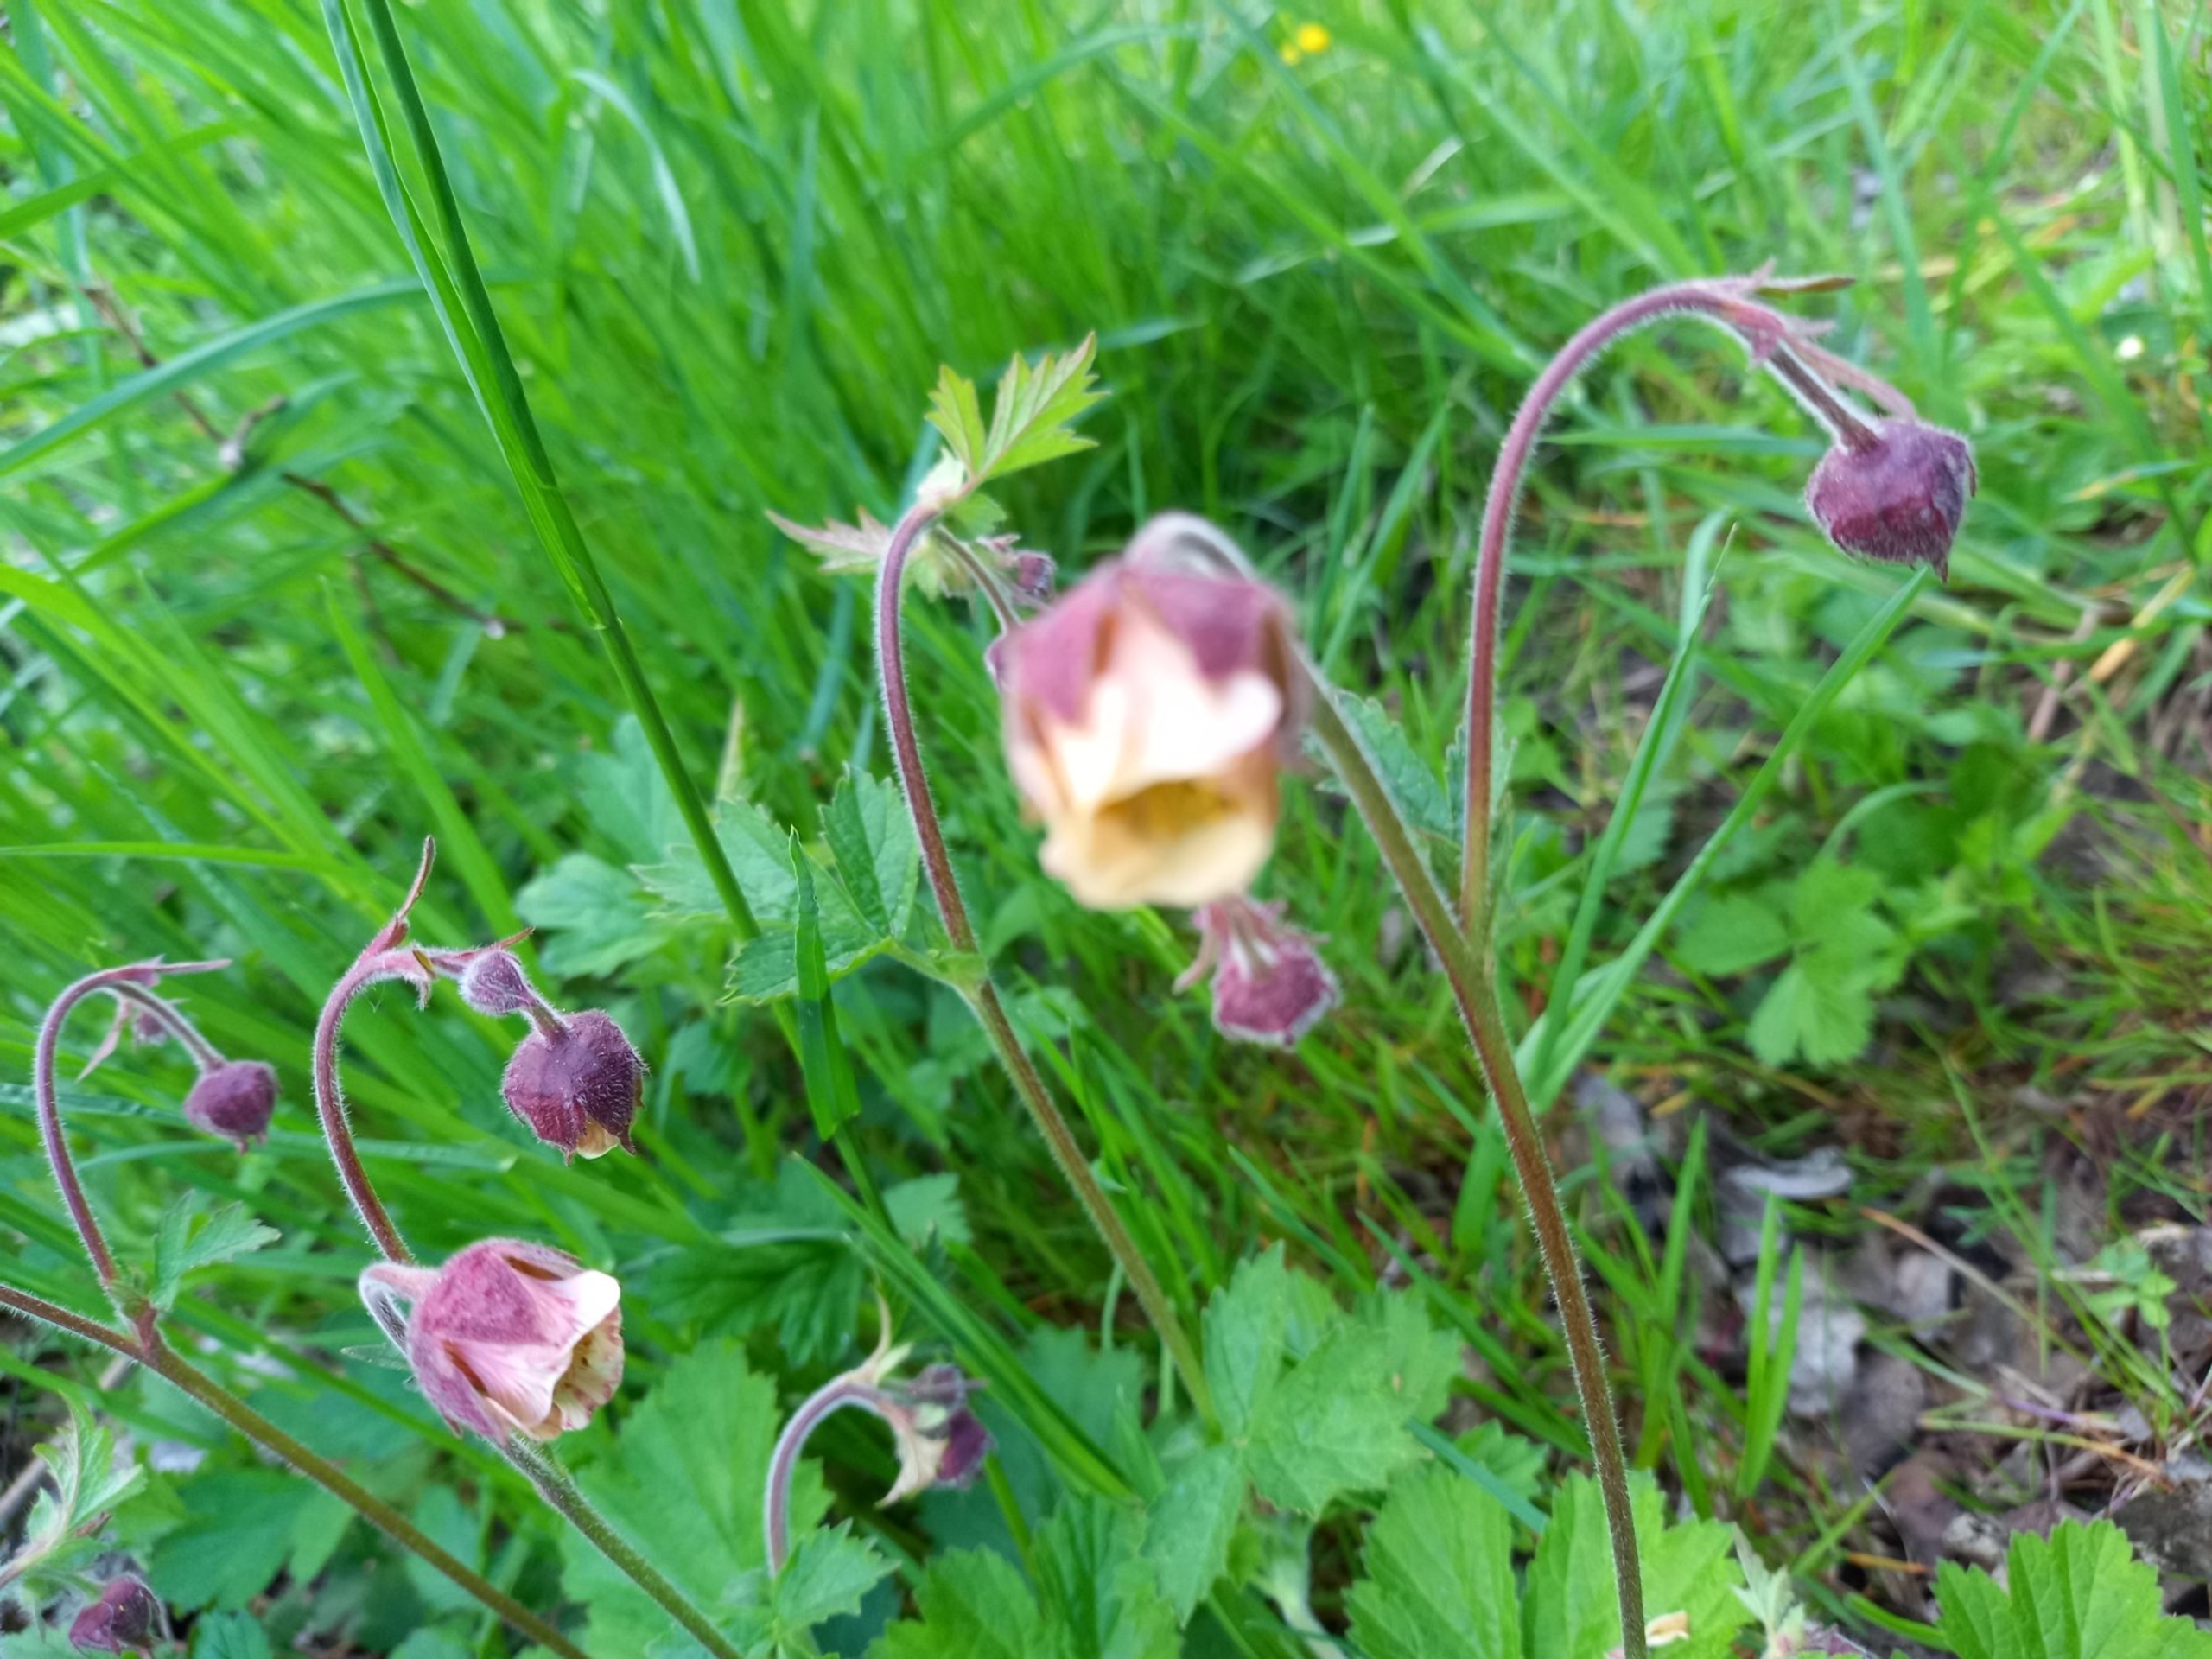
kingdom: Plantae
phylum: Tracheophyta
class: Magnoliopsida
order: Rosales
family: Rosaceae
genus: Geum
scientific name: Geum rivale
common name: Eng-nellikerod
